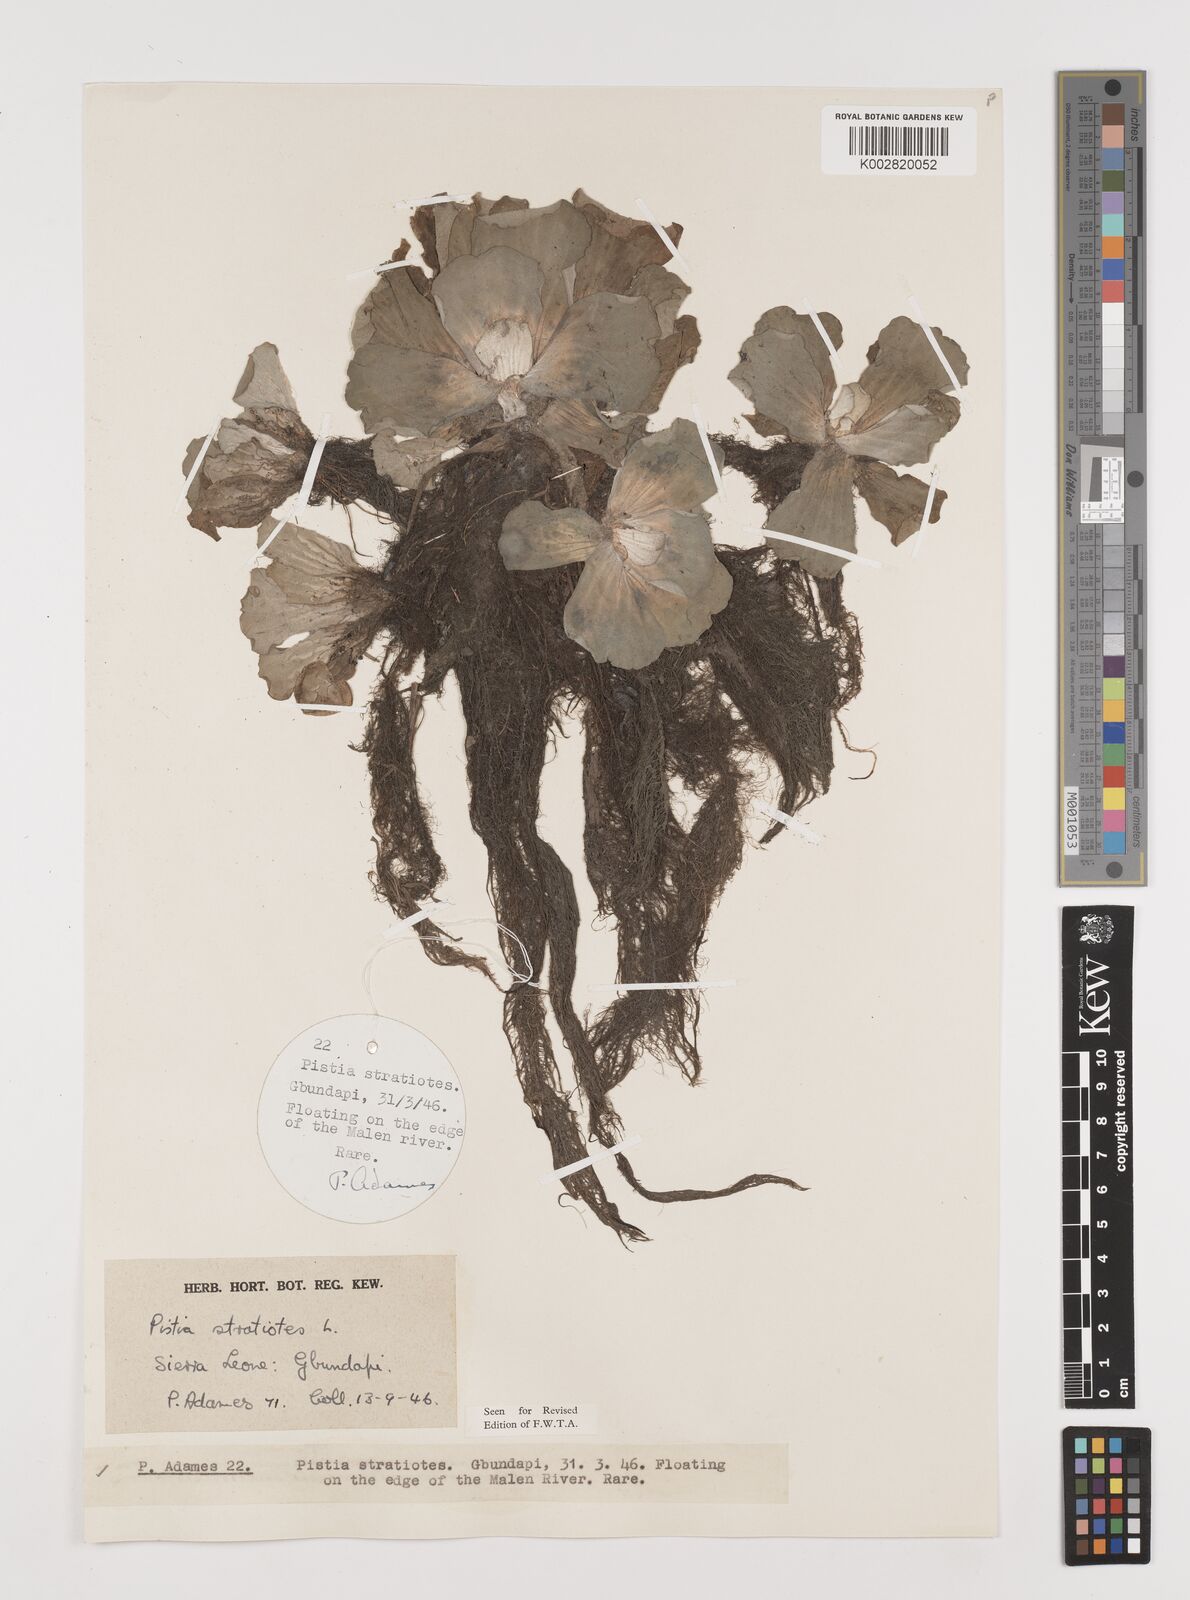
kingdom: Plantae
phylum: Tracheophyta
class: Liliopsida
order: Alismatales
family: Araceae
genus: Pistia
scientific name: Pistia stratiotes
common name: Water lettuce
